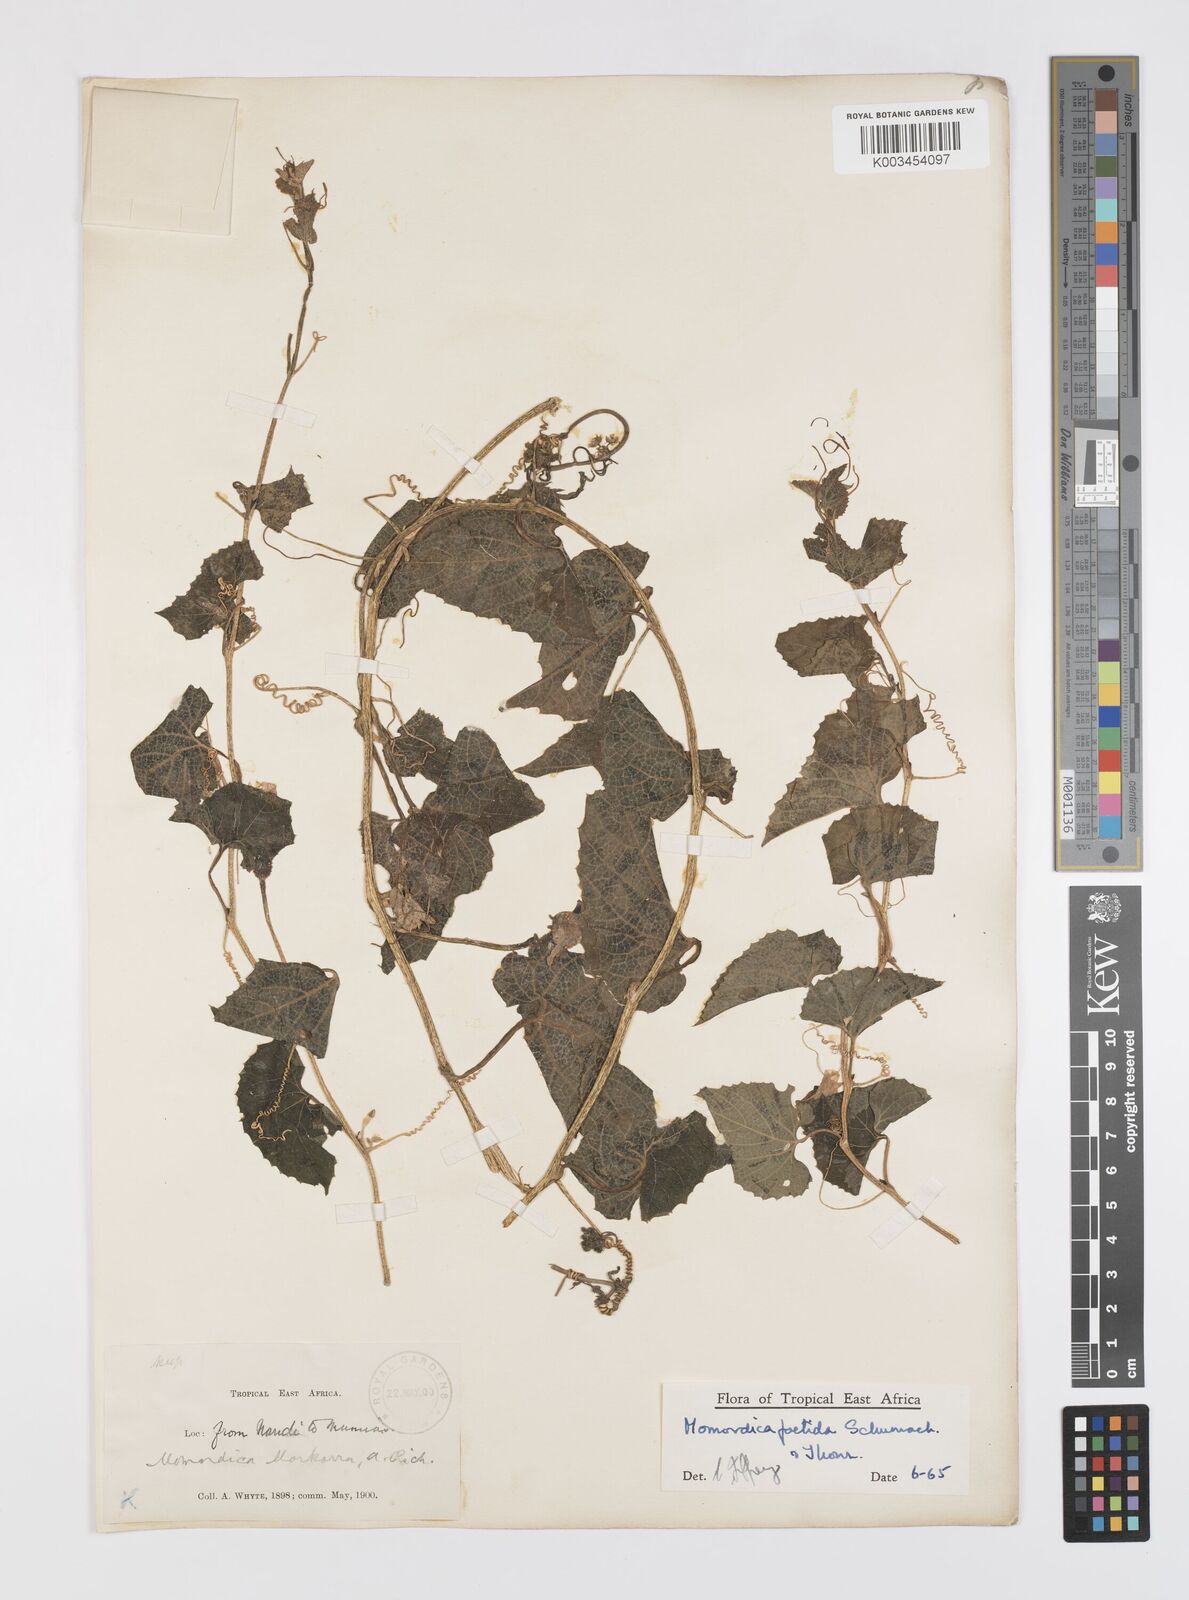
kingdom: Plantae
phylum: Tracheophyta
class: Magnoliopsida
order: Cucurbitales
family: Cucurbitaceae
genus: Momordica
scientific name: Momordica foetida
